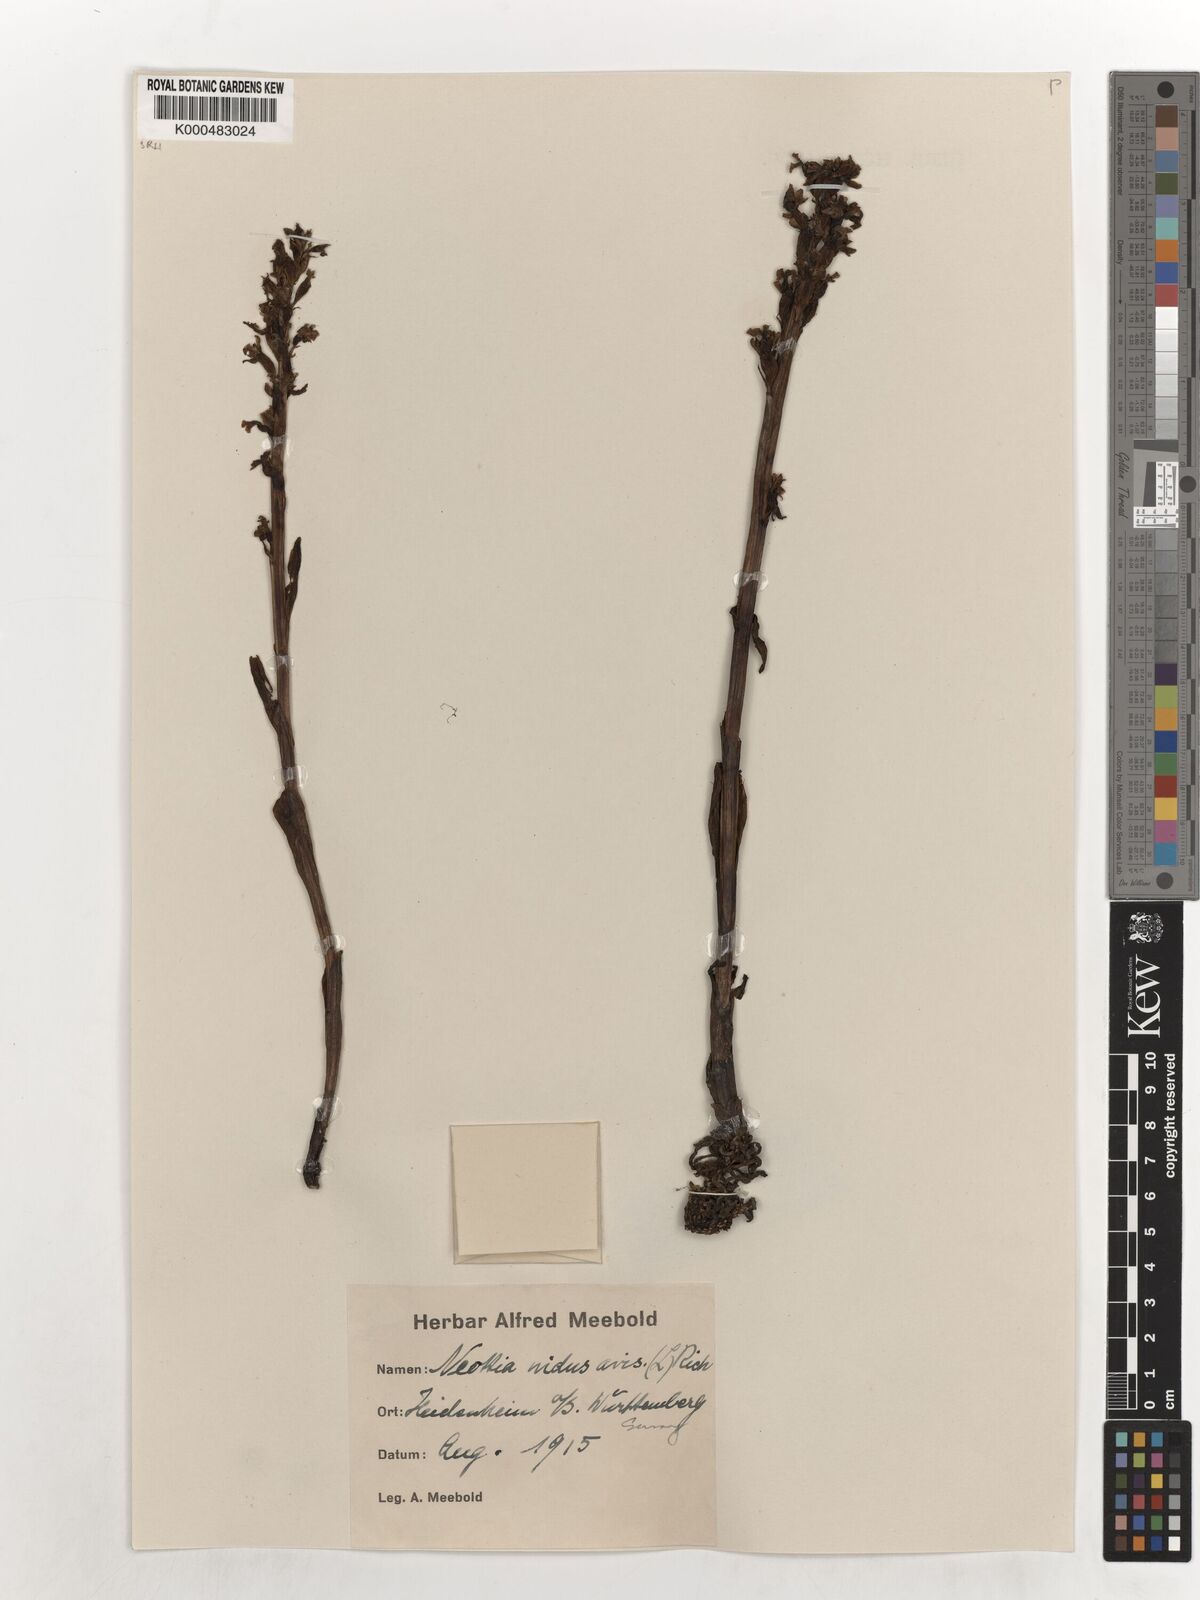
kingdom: Plantae
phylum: Tracheophyta
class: Liliopsida
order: Asparagales
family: Orchidaceae
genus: Neottia
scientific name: Neottia nidus-avis
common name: Bird's-nest orchid
